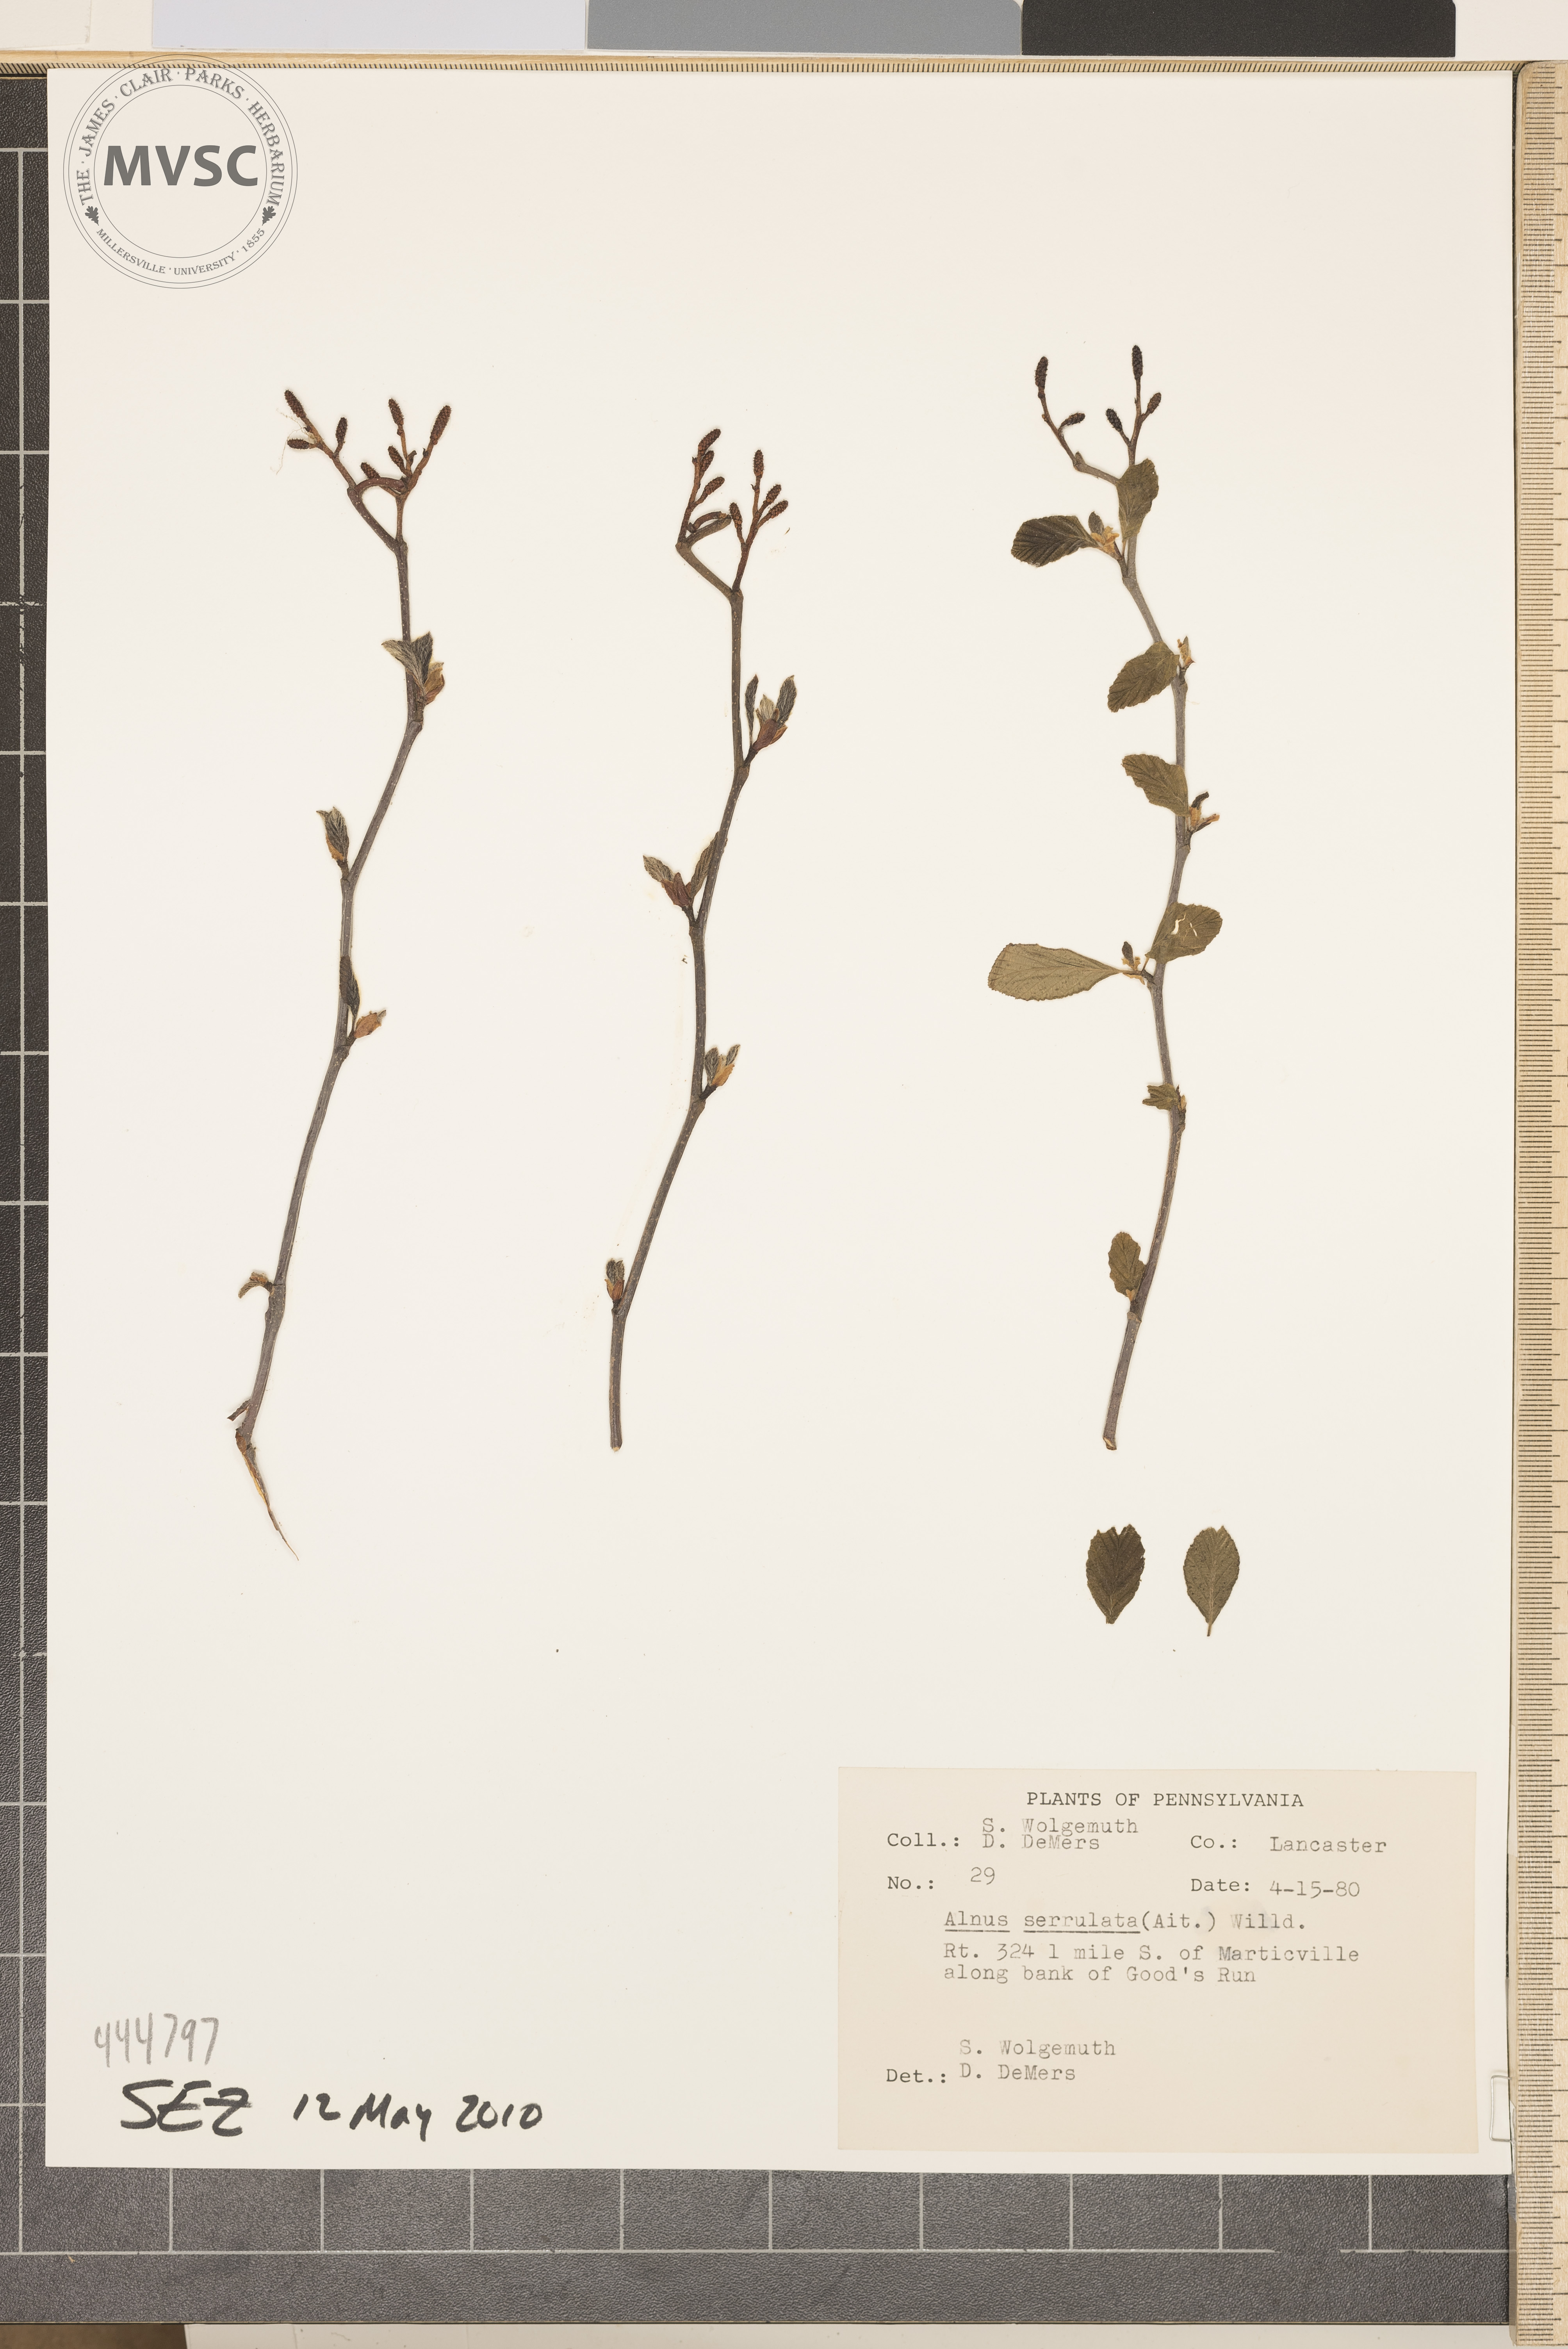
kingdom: Plantae
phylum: Tracheophyta
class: Magnoliopsida
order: Fagales
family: Betulaceae
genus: Alnus
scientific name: Alnus serrulata
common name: Hazel alder
